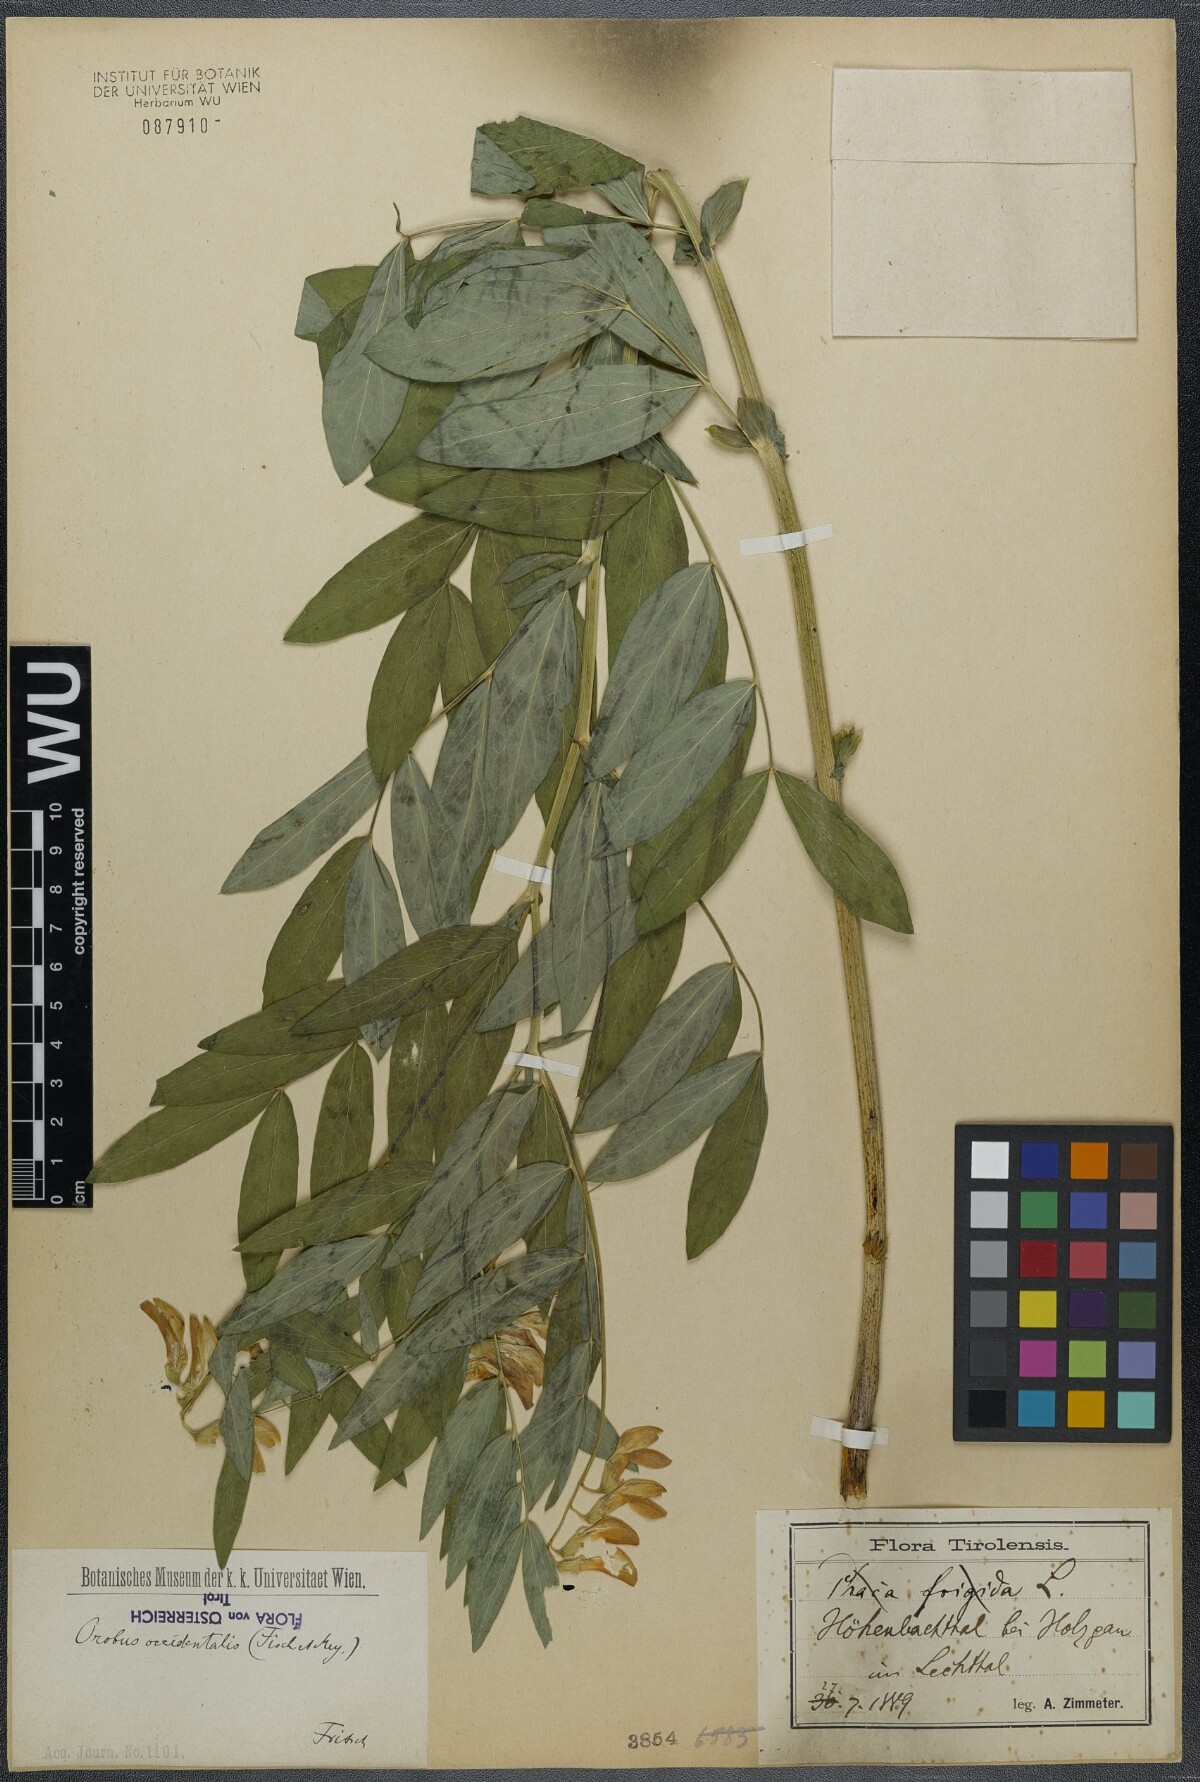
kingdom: Plantae
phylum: Tracheophyta
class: Magnoliopsida
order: Fabales
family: Fabaceae
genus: Lathyrus
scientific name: Lathyrus laevigatus
